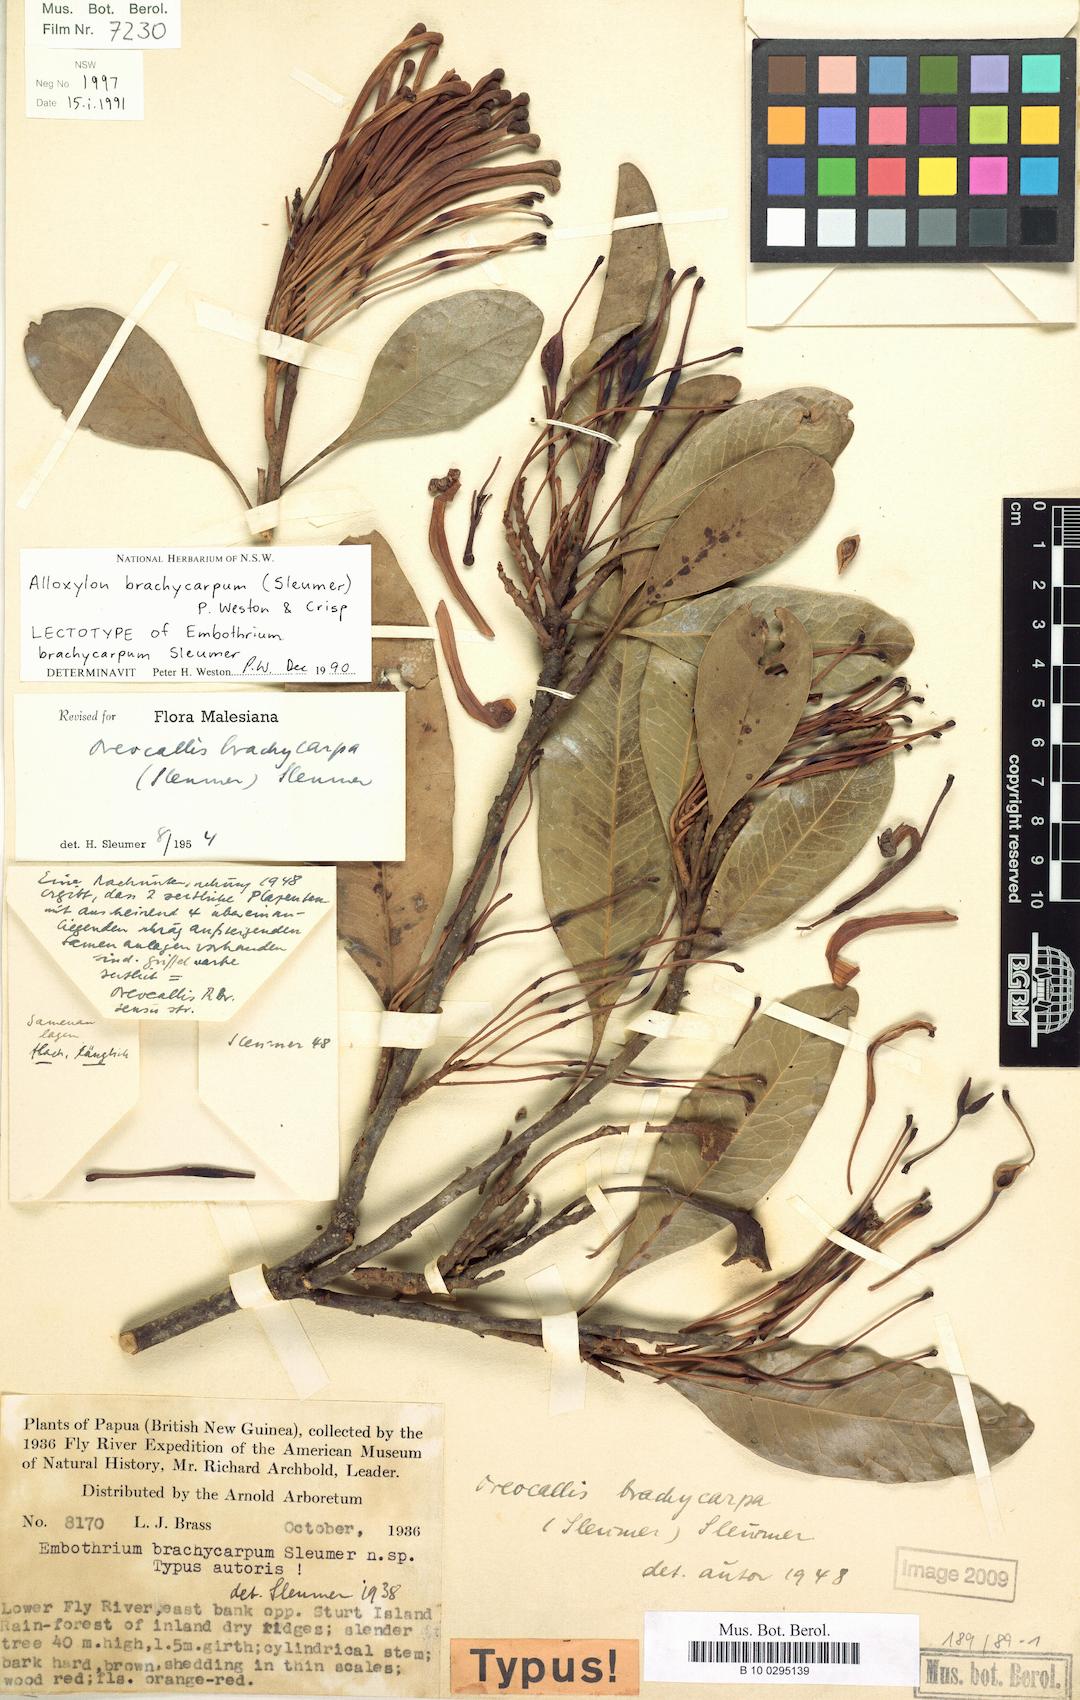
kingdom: Plantae
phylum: Tracheophyta
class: Magnoliopsida
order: Proteales
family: Proteaceae
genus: Alloxylon
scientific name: Alloxylon brachycarpum
